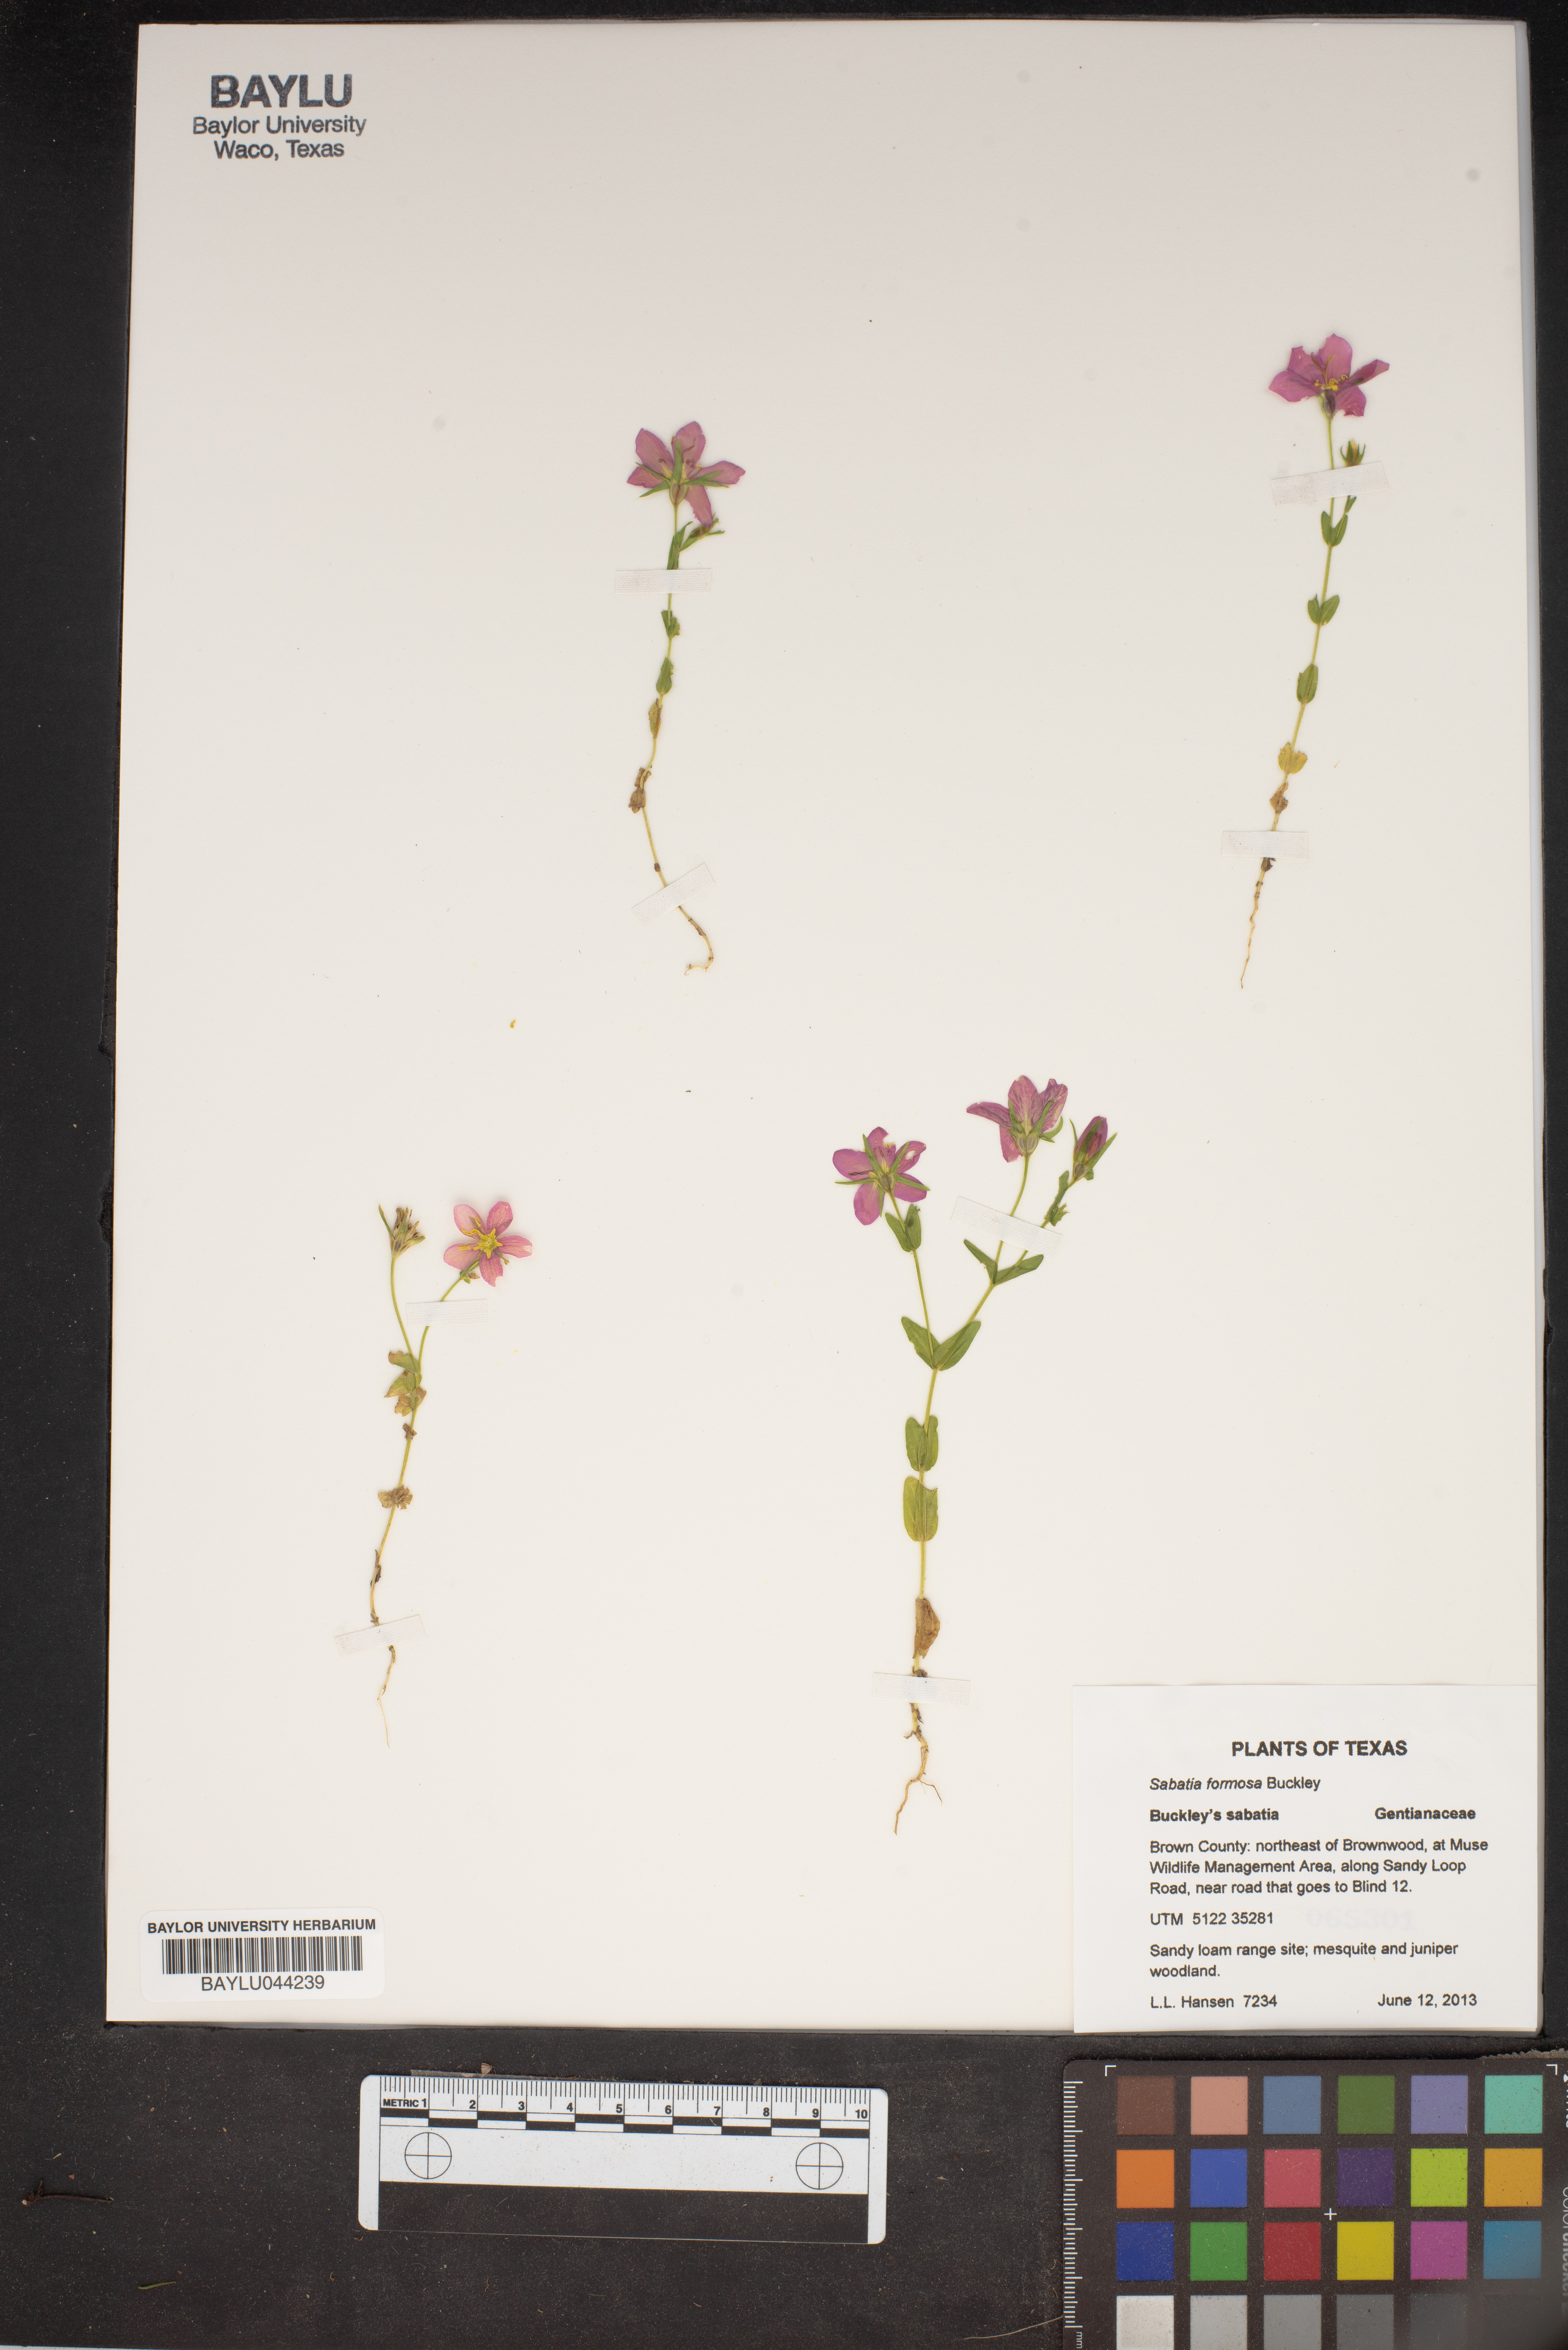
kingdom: Plantae
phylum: Tracheophyta
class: Magnoliopsida
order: Gentianales
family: Gentianaceae
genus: Sabatia
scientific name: Sabatia formosa
